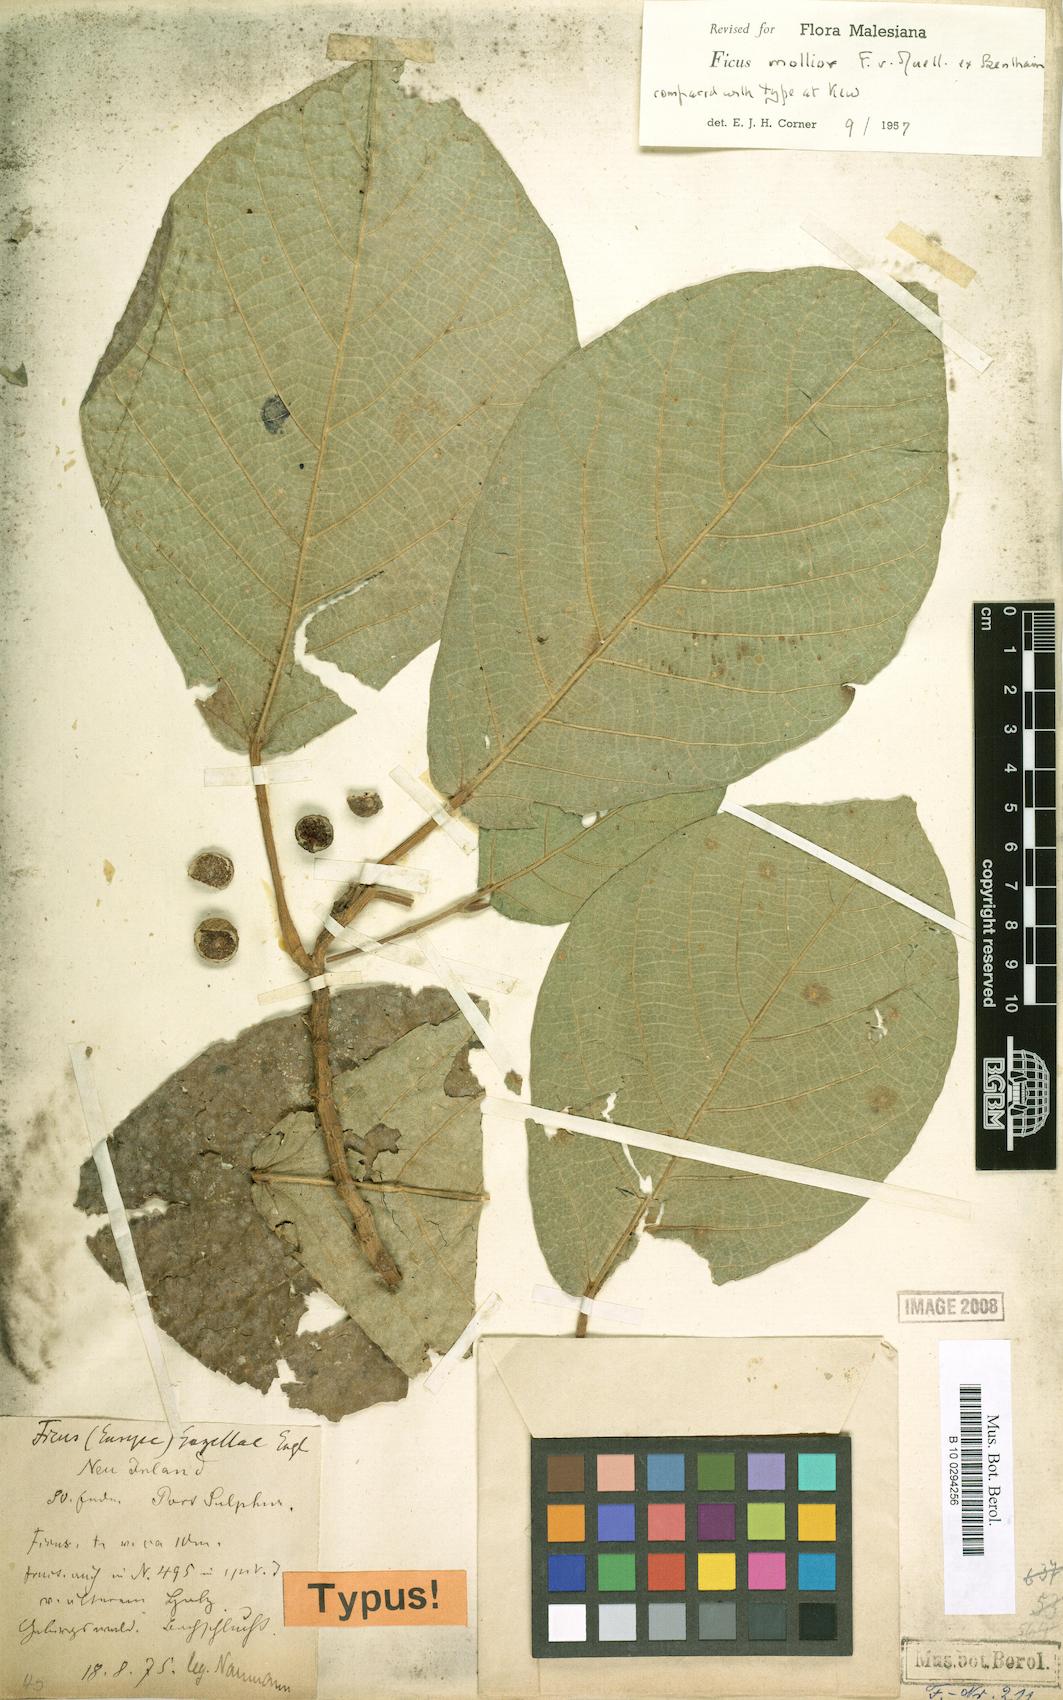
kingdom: Plantae
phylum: Tracheophyta
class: Magnoliopsida
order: Rosales
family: Moraceae
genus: Ficus
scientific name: Ficus mollior
